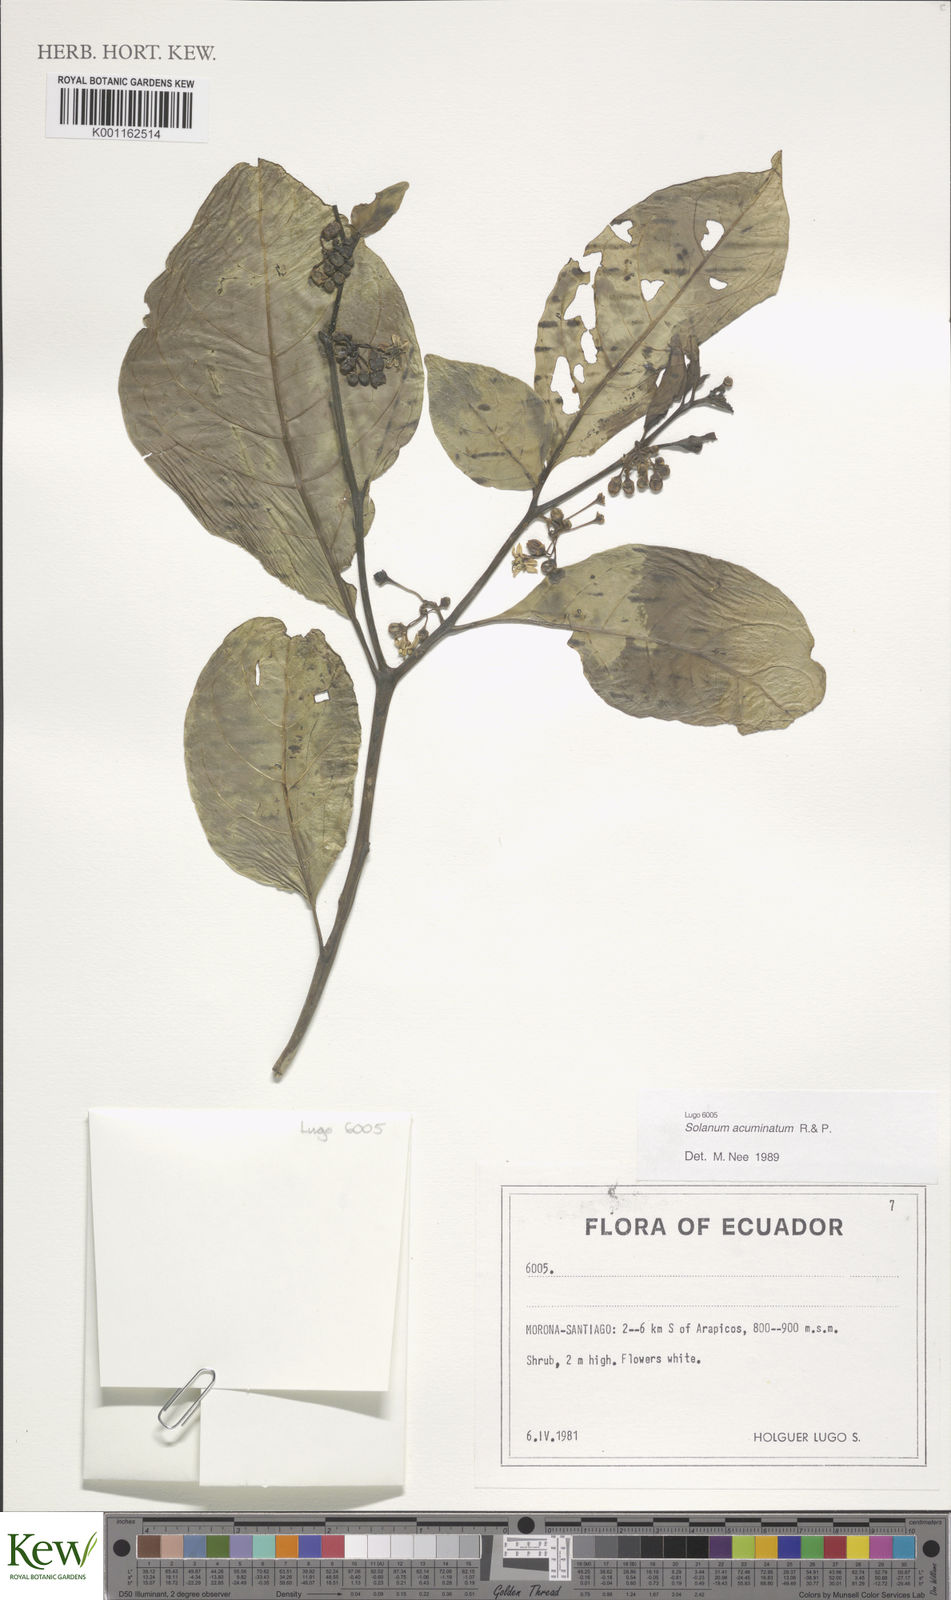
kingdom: Plantae
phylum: Tracheophyta
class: Magnoliopsida
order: Solanales
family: Solanaceae
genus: Solanum
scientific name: Solanum acuminatum
